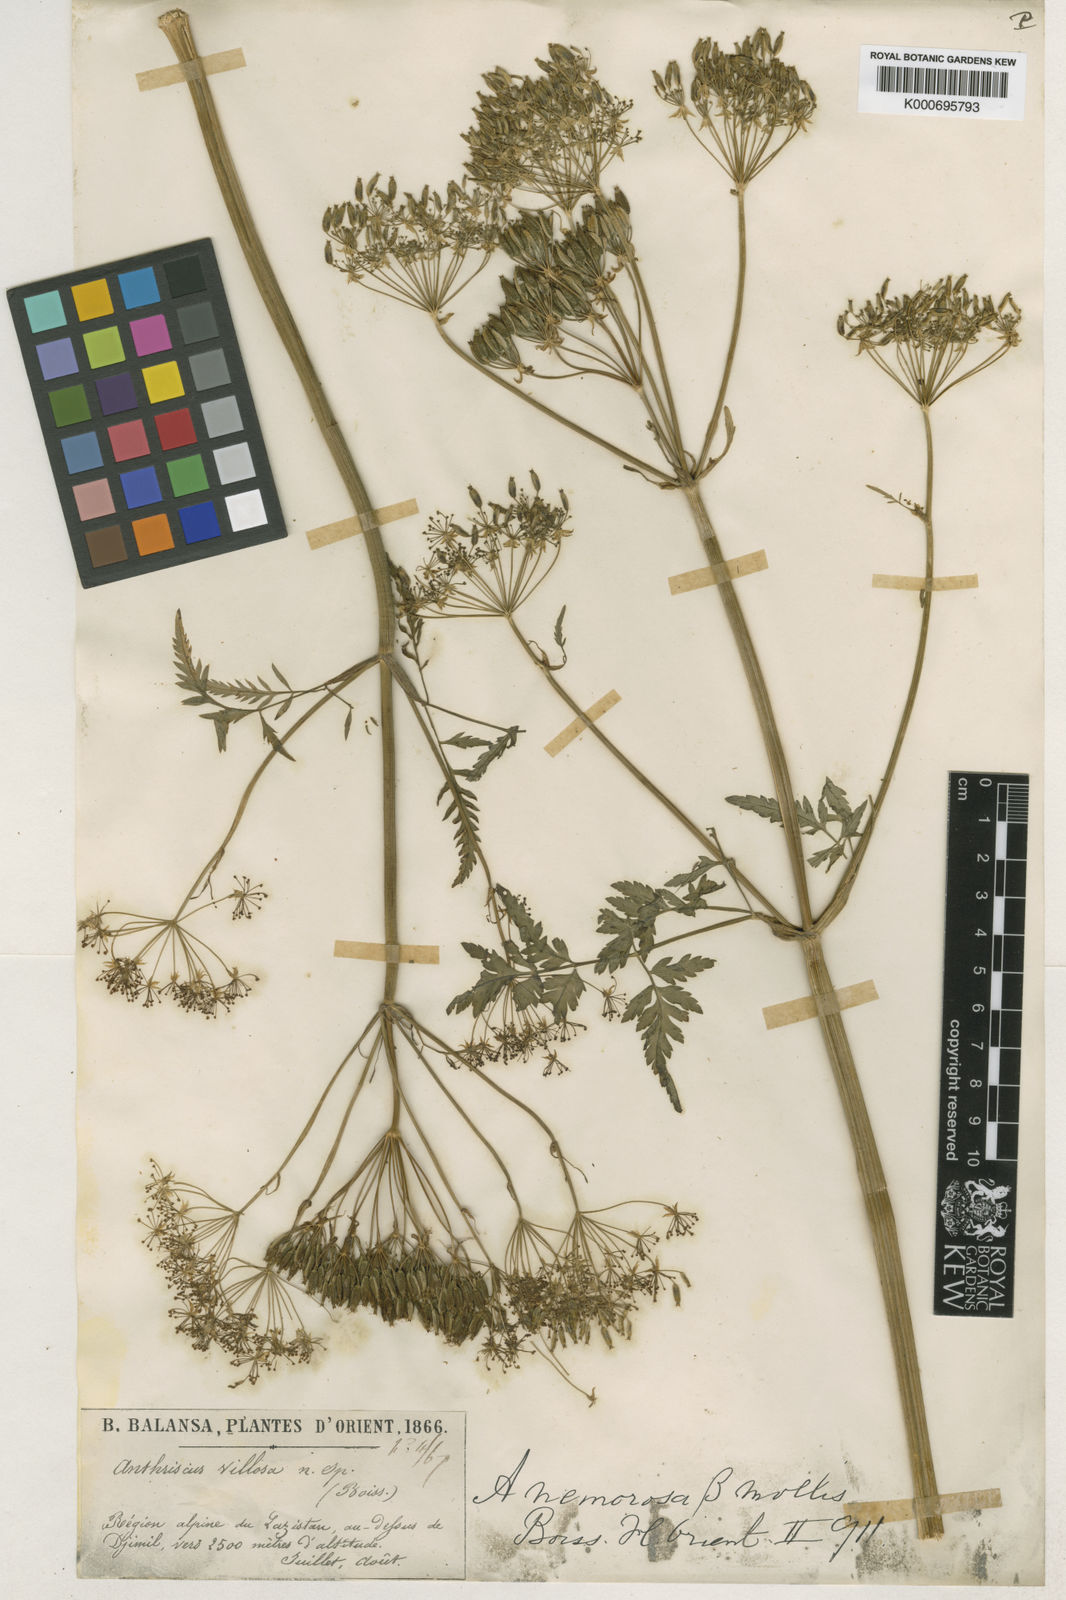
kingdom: Plantae
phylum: Tracheophyta
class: Magnoliopsida
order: Apiales
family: Apiaceae
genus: Anthriscus
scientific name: Anthriscus sylvestris
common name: Cow parsley
